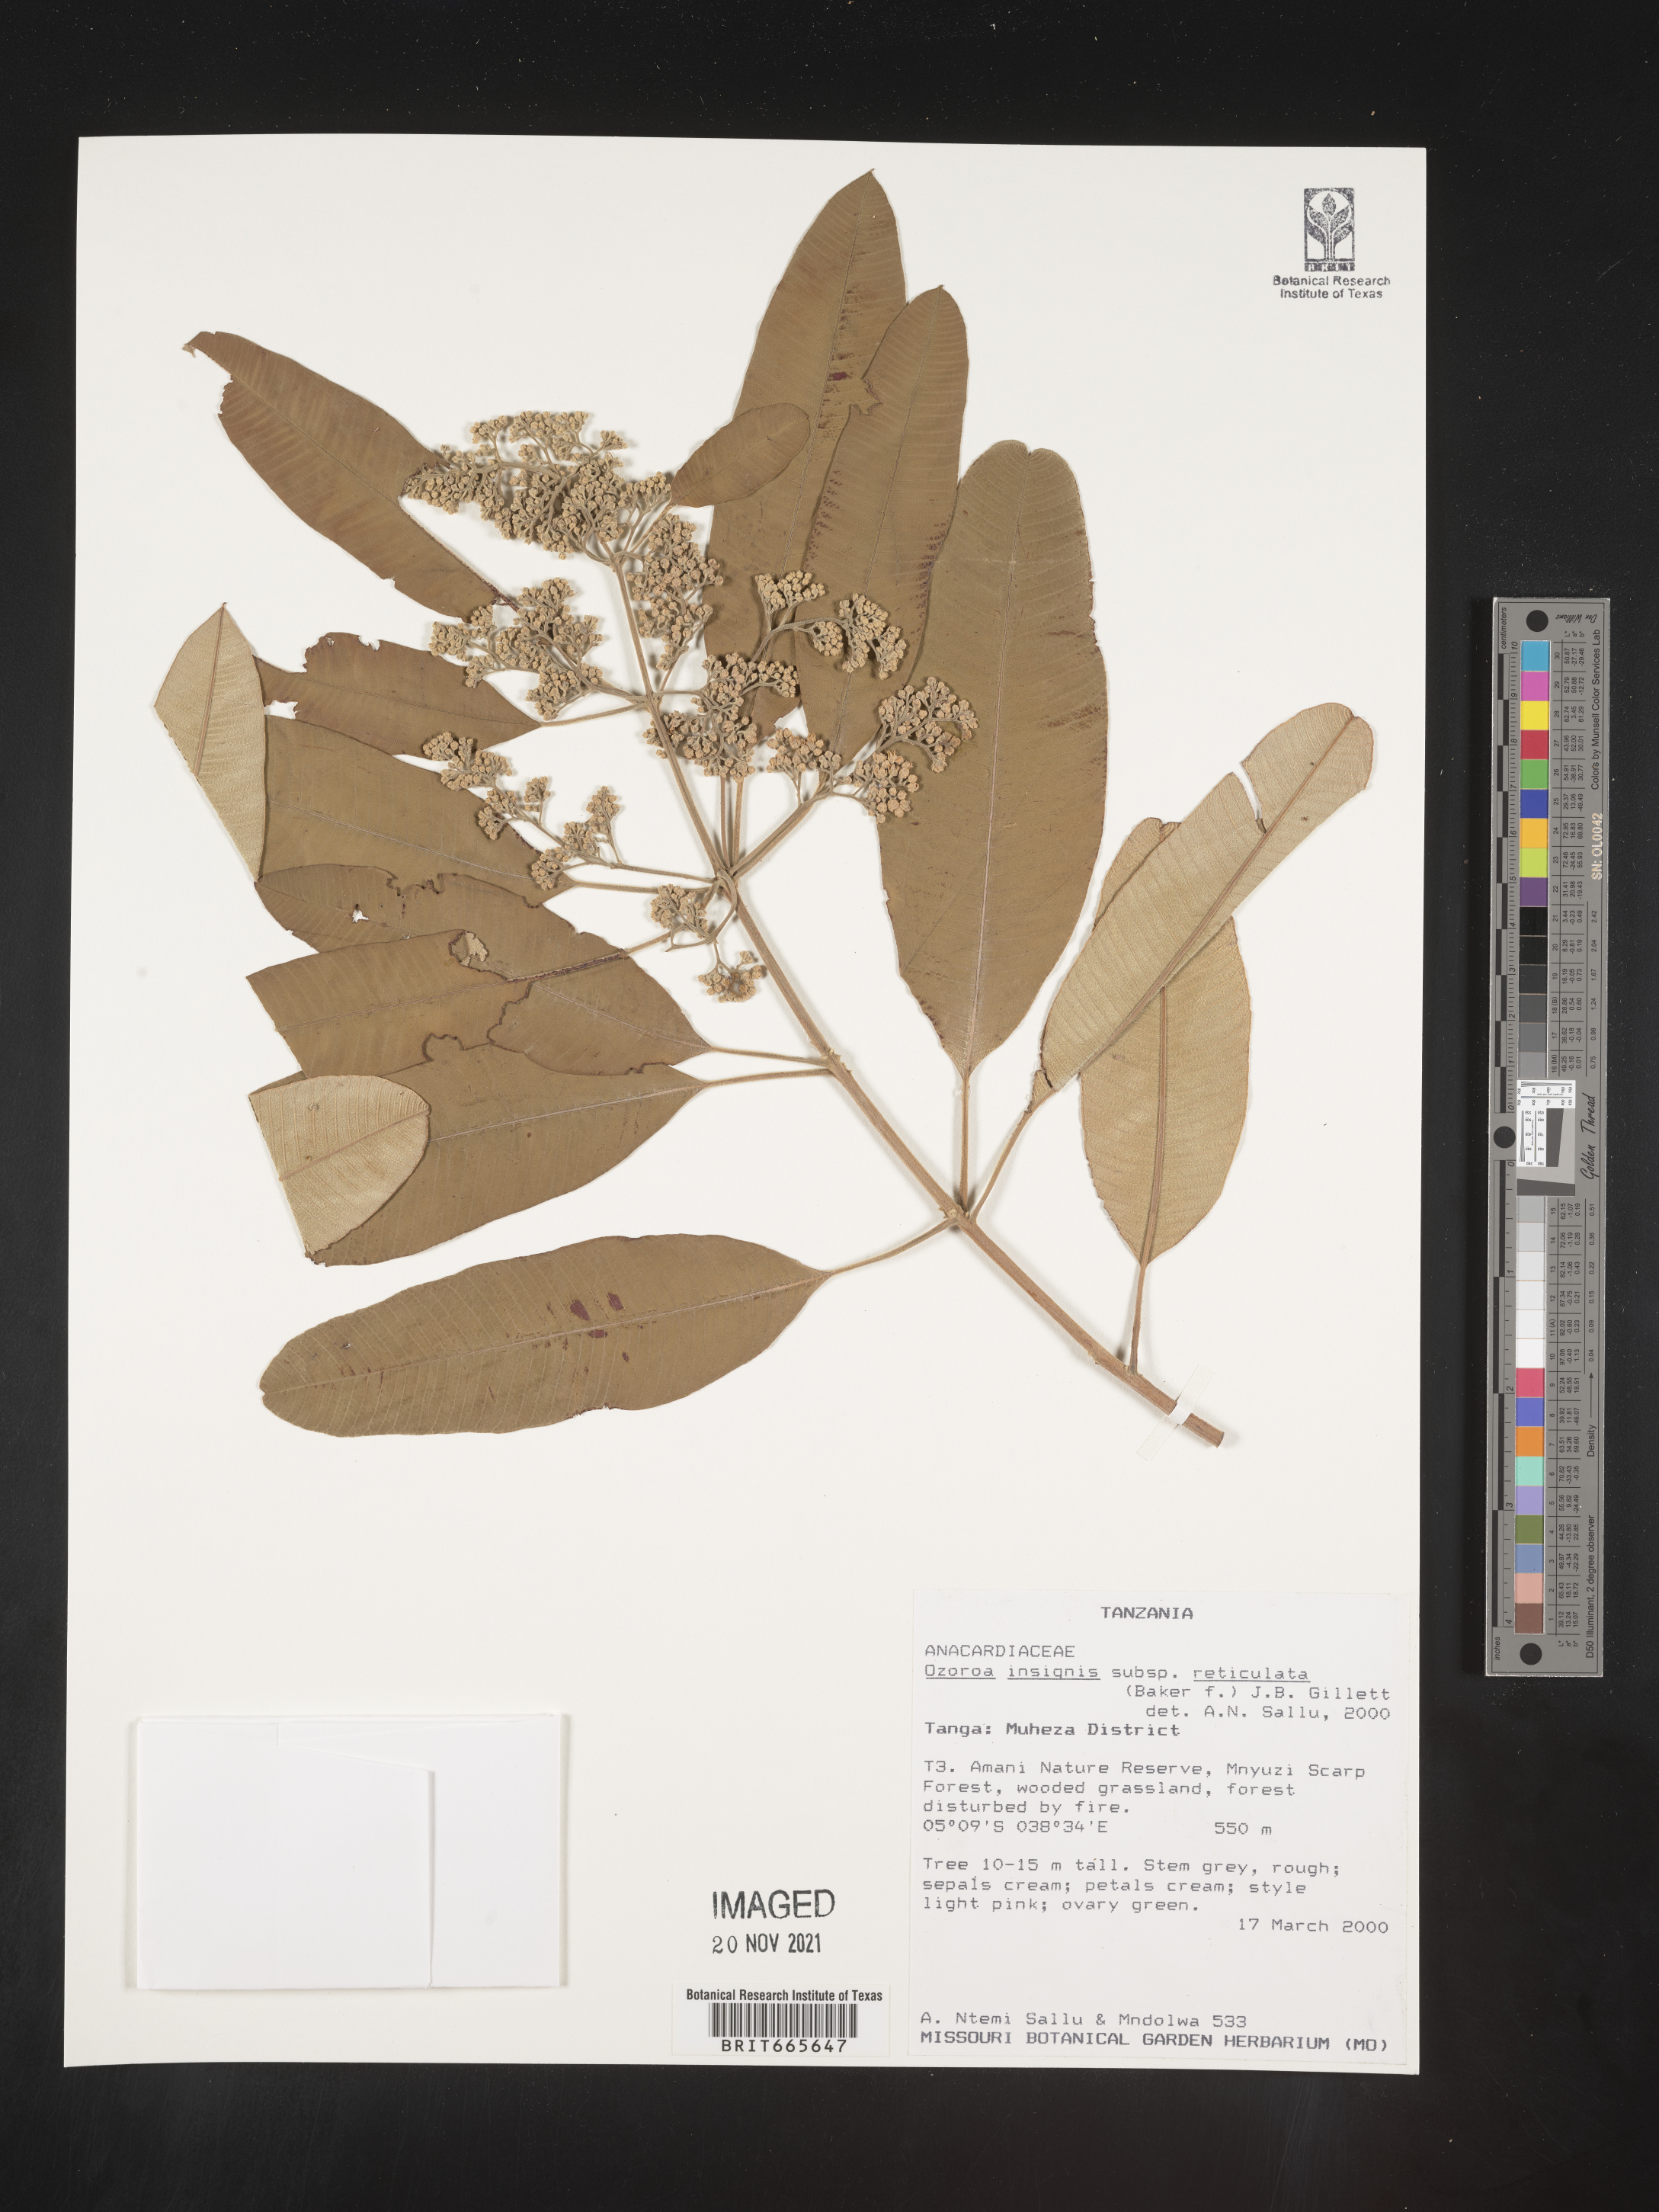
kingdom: Plantae
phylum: Tracheophyta
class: Magnoliopsida
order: Sapindales
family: Anacardiaceae
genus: Ozoroa
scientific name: Ozoroa
